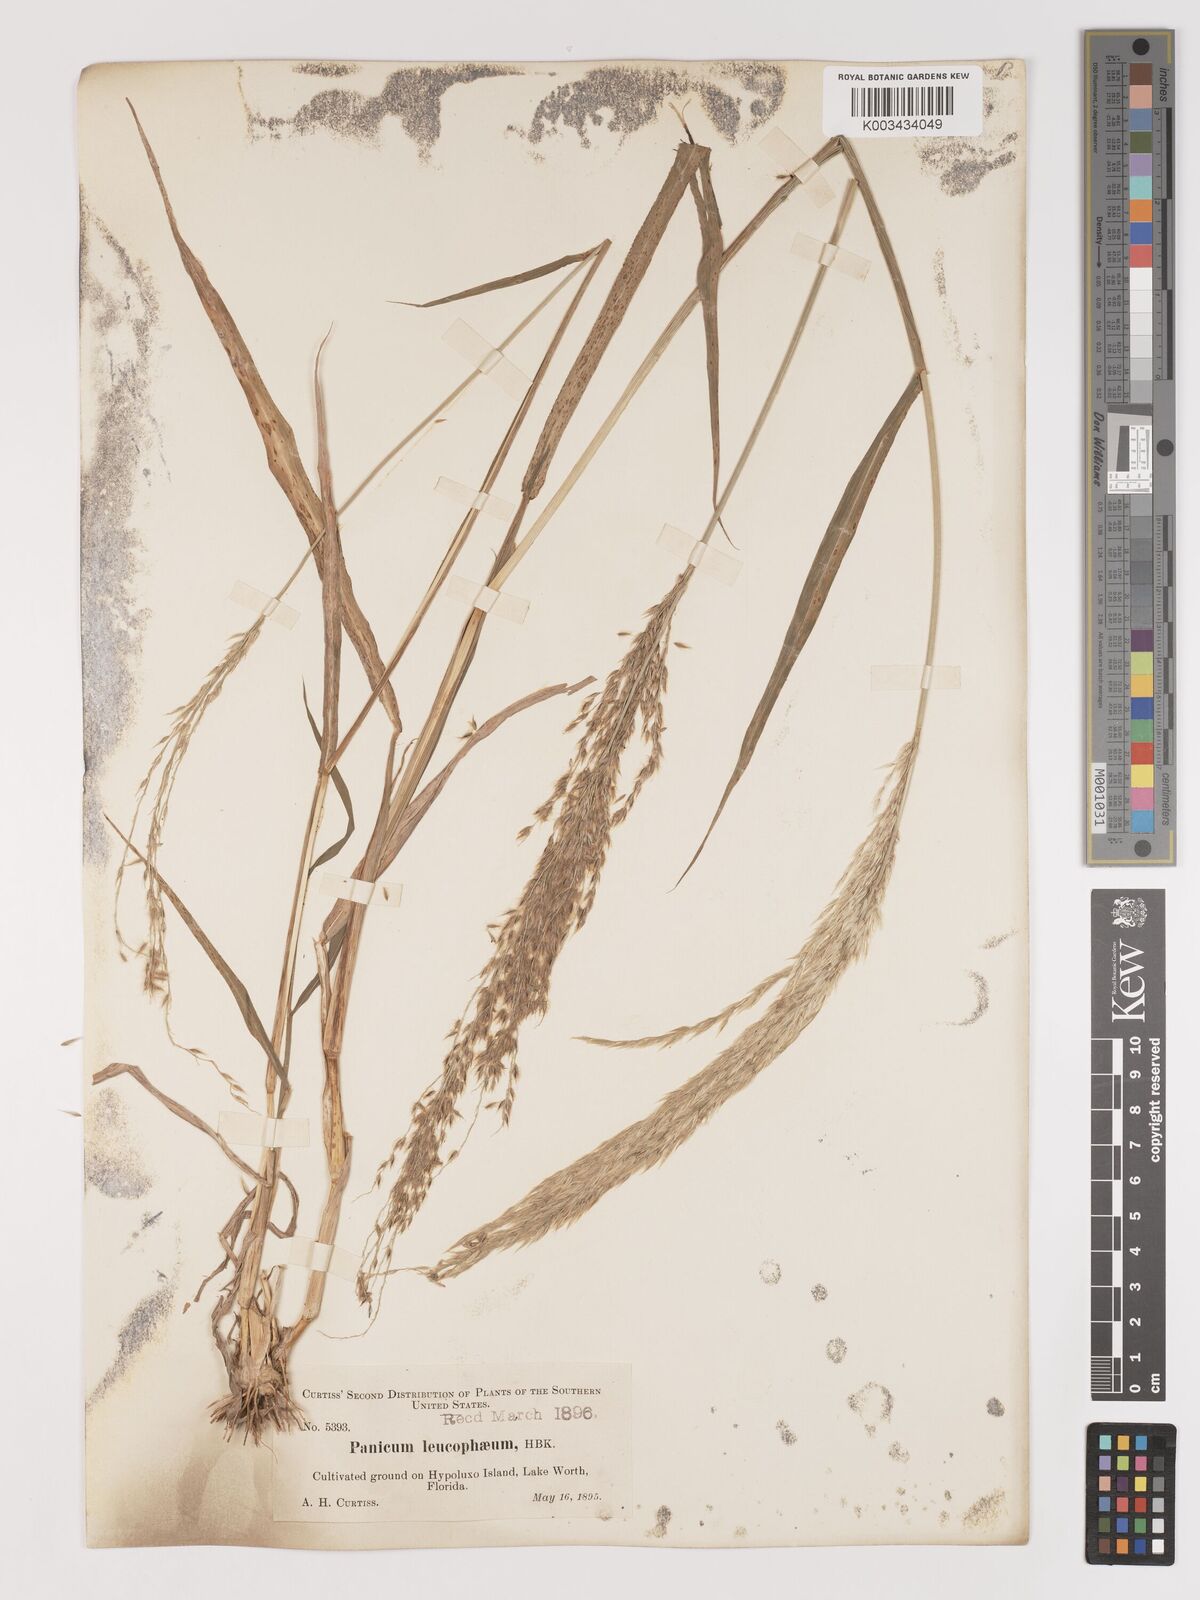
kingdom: Plantae
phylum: Tracheophyta
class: Liliopsida
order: Poales
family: Poaceae
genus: Digitaria
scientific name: Digitaria insularis
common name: Sourgrass
